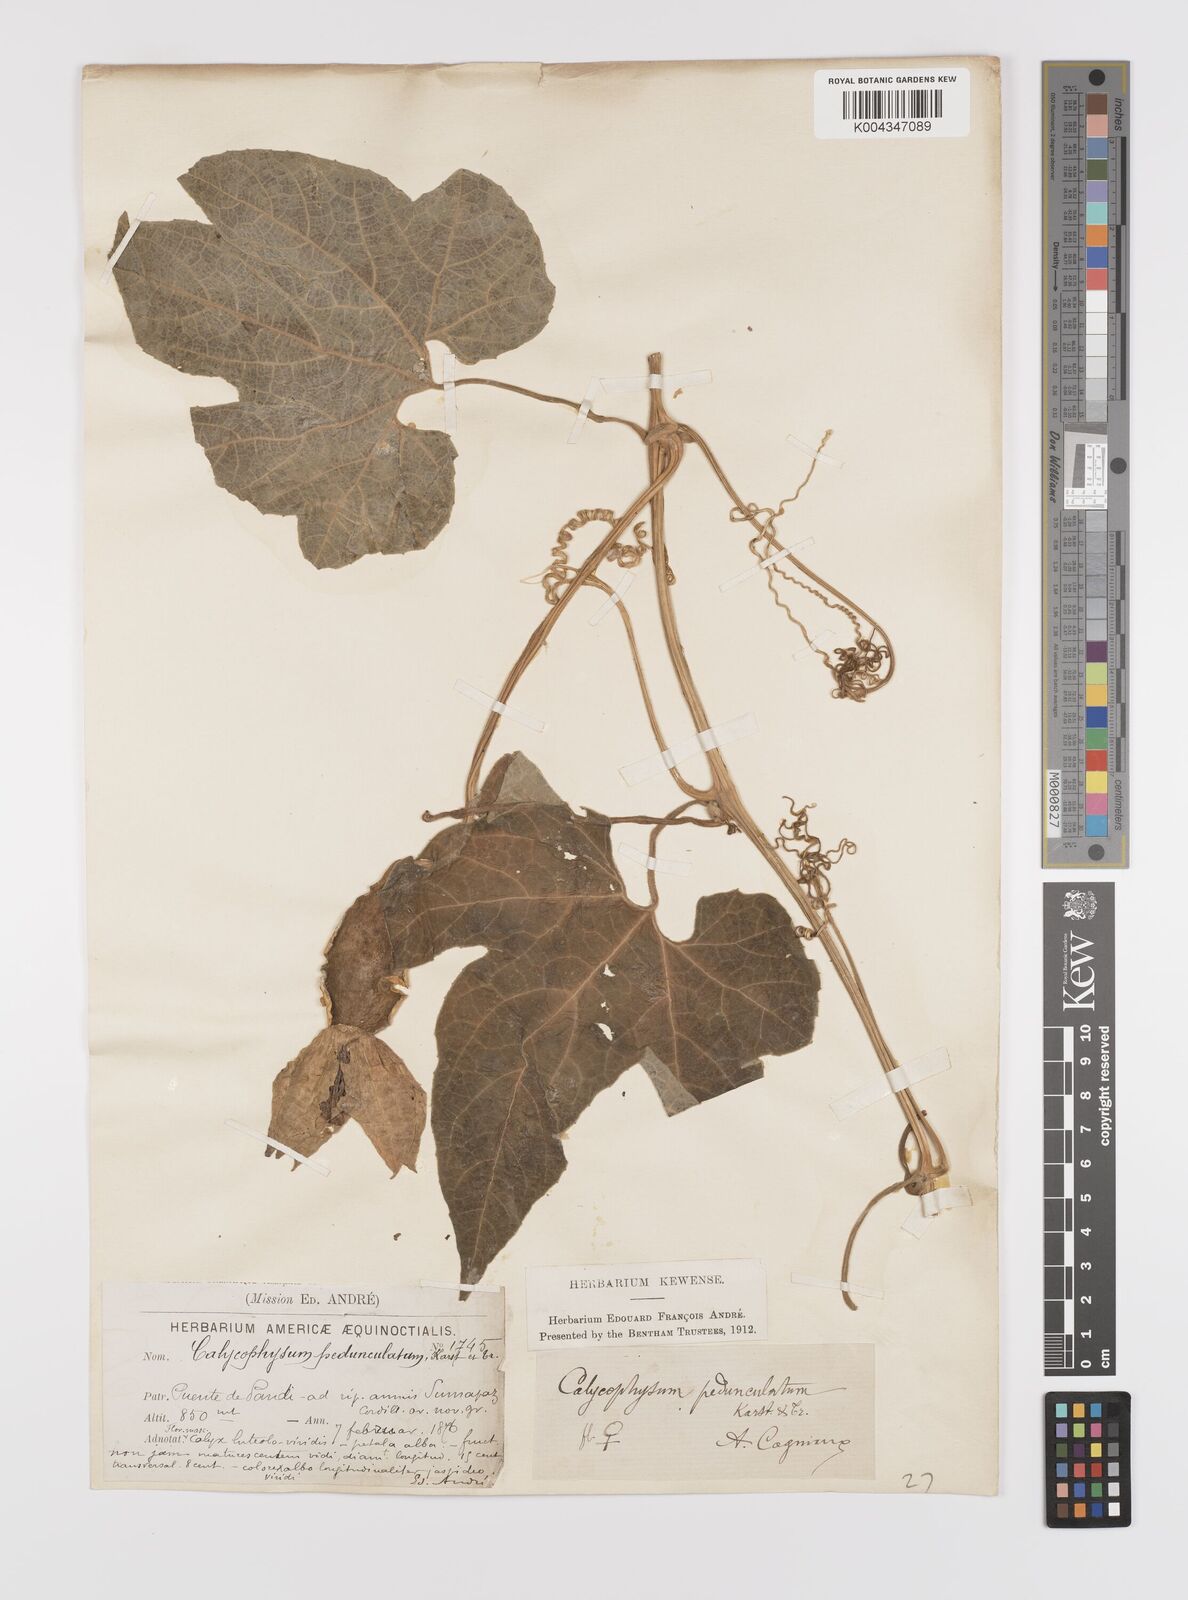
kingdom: Plantae
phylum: Tracheophyta
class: Magnoliopsida
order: Cucurbitales
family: Cucurbitaceae
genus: Calycophysum
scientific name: Calycophysum pedunculatum
